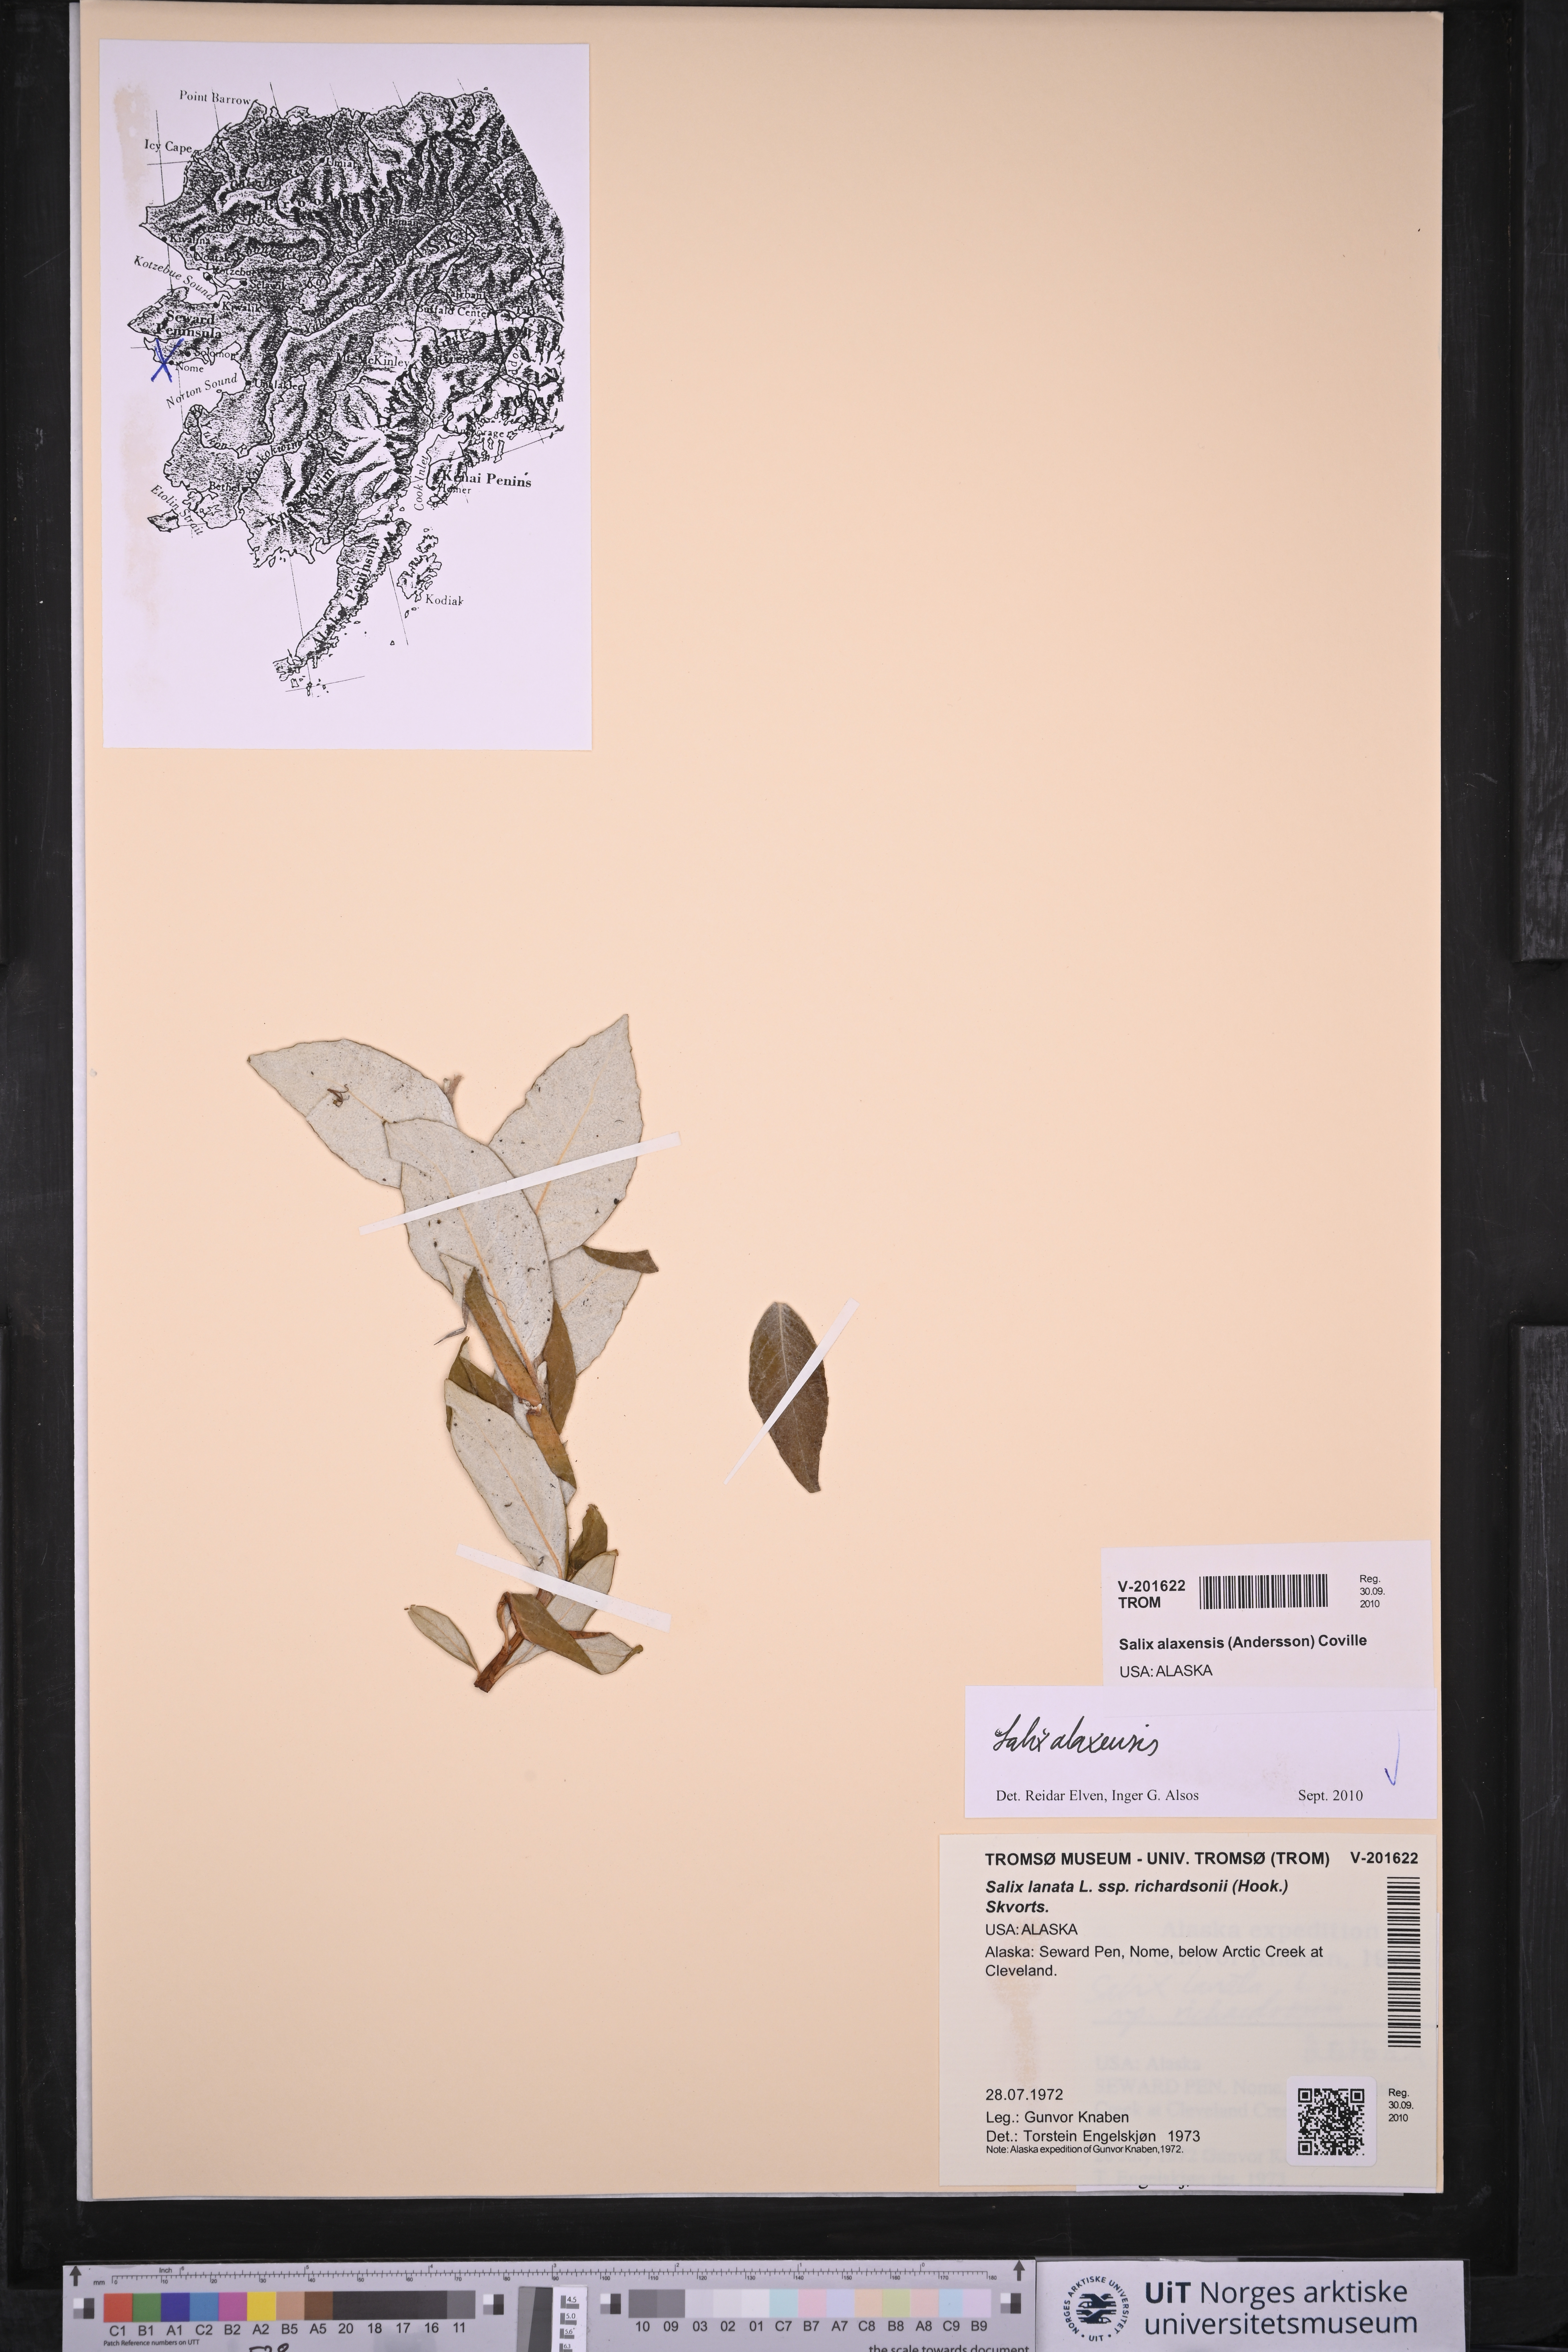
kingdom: Plantae
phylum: Tracheophyta
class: Magnoliopsida
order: Malpighiales
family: Salicaceae
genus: Salix
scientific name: Salix alaxensis
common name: Feltleaf willow
